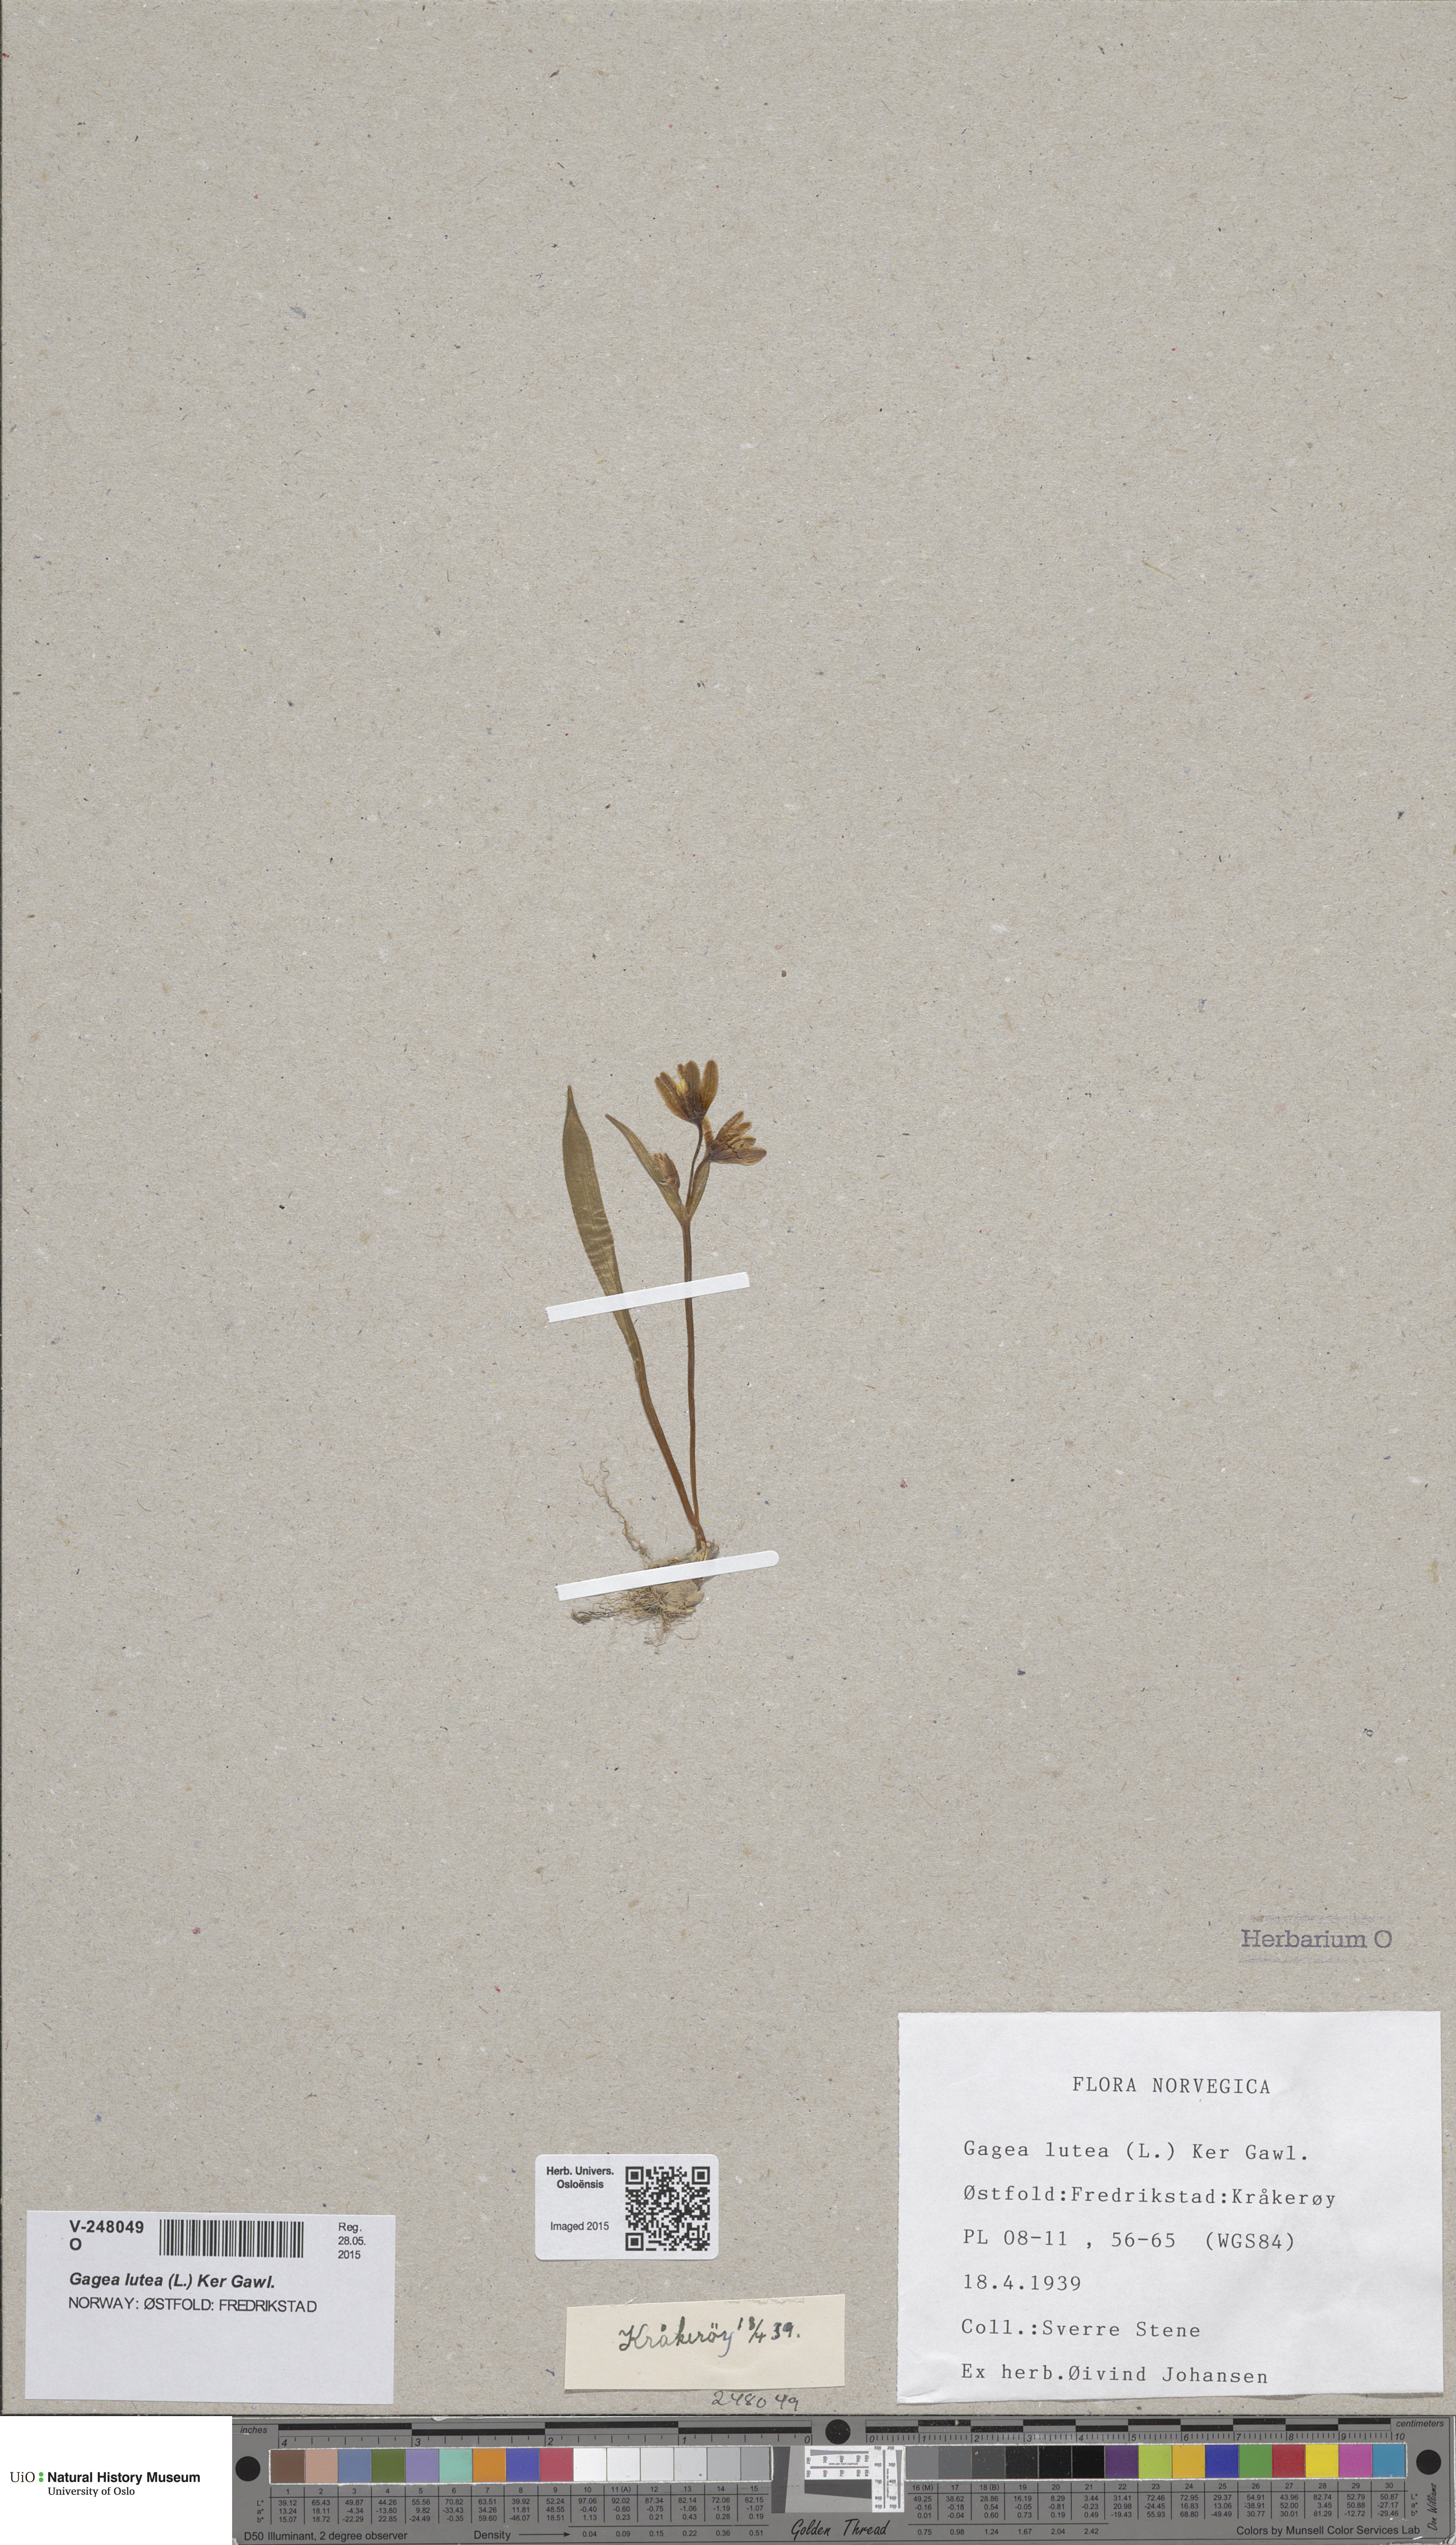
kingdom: Plantae
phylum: Tracheophyta
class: Liliopsida
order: Liliales
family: Liliaceae
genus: Gagea
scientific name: Gagea lutea
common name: Yellow star-of-bethlehem
